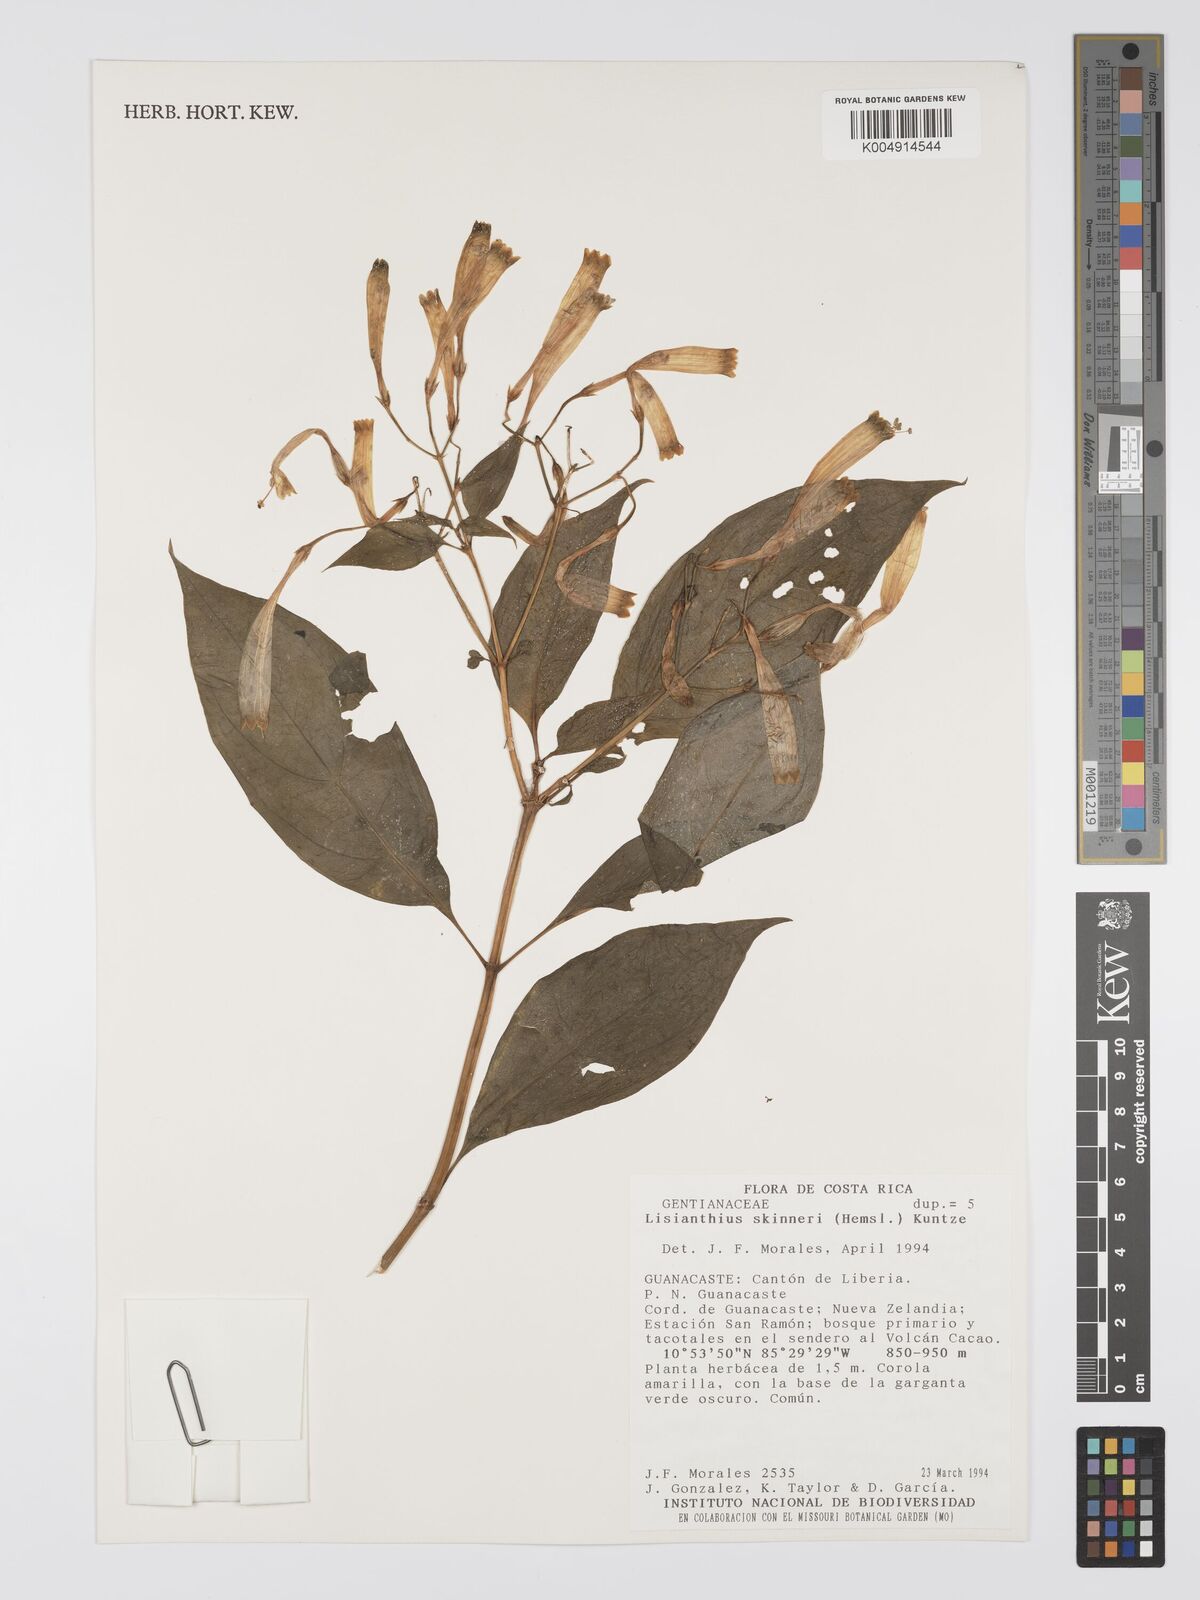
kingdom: Plantae
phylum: Tracheophyta
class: Magnoliopsida
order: Gentianales
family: Gentianaceae
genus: Lisianthus
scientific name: Lisianthus skinneri
